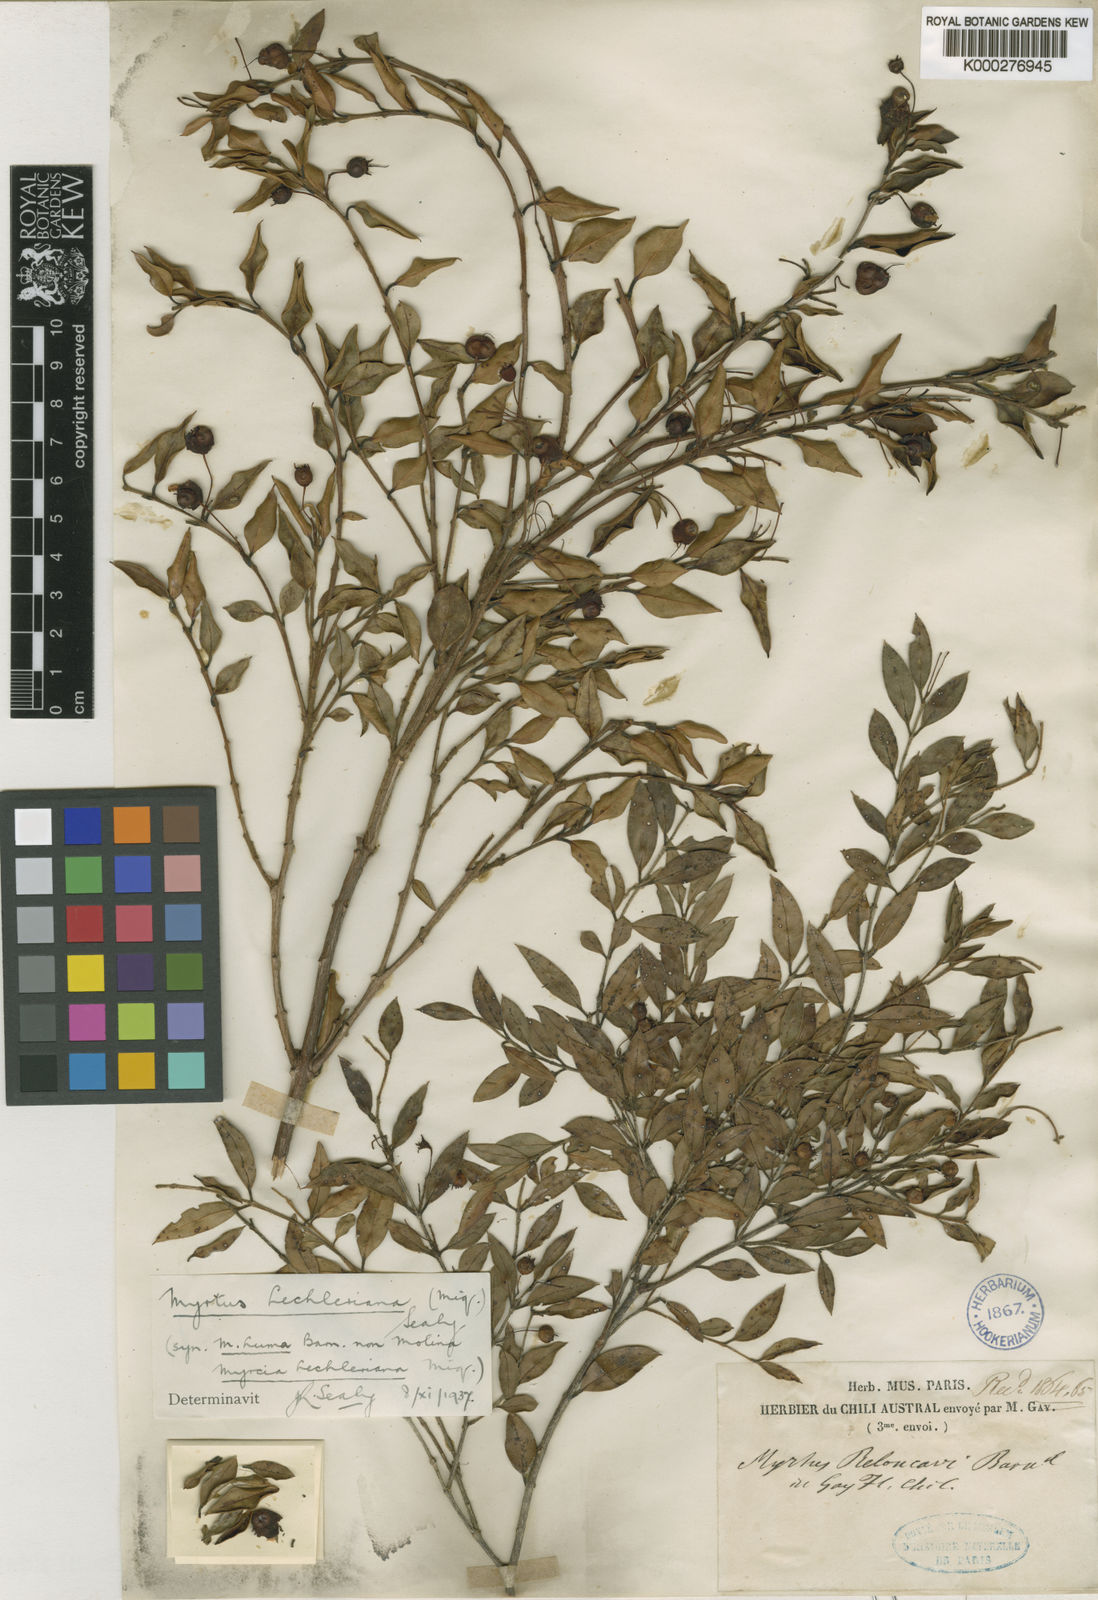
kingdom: Plantae
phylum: Tracheophyta
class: Magnoliopsida
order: Myrtales
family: Myrtaceae
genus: Amomyrtus
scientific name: Amomyrtus luma
